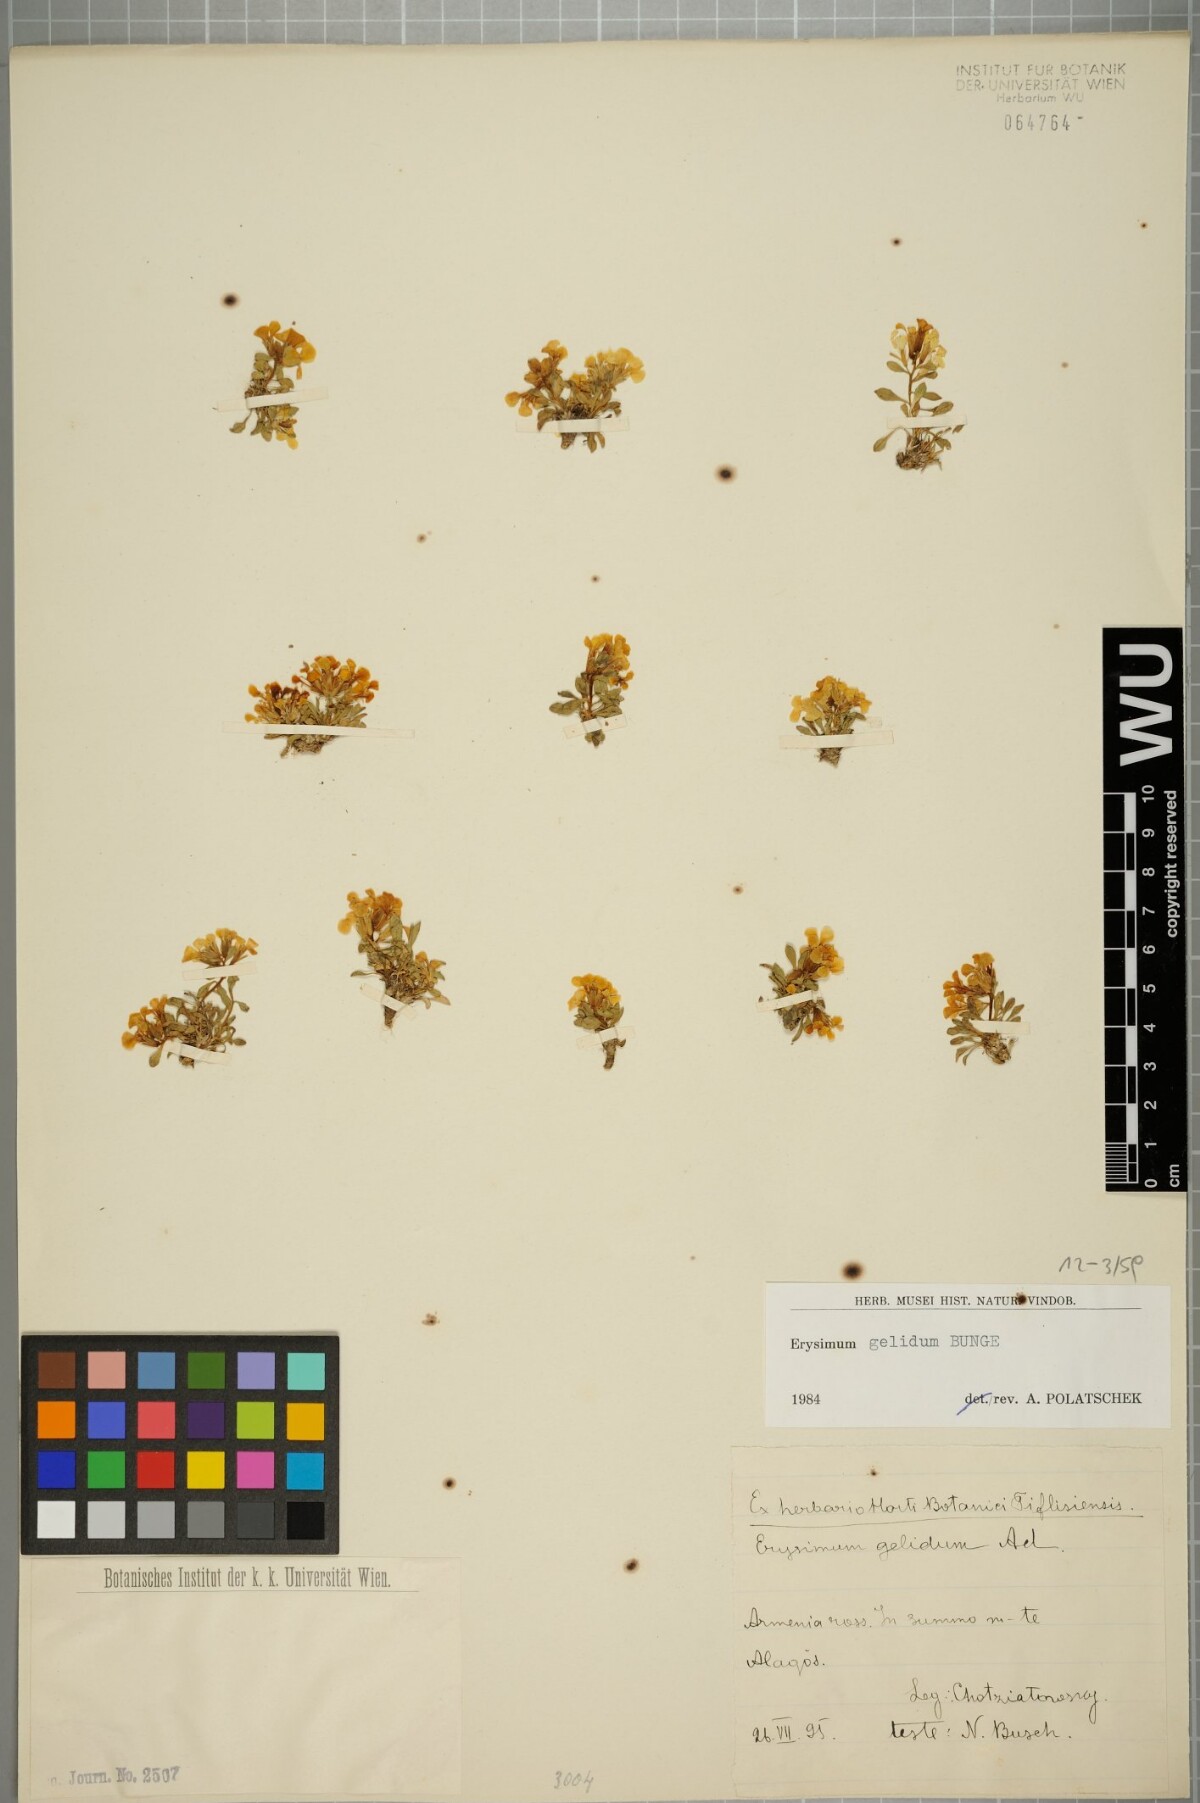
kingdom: Plantae
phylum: Tracheophyta
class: Magnoliopsida
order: Brassicales
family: Brassicaceae
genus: Erysimum
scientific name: Erysimum gelidum
